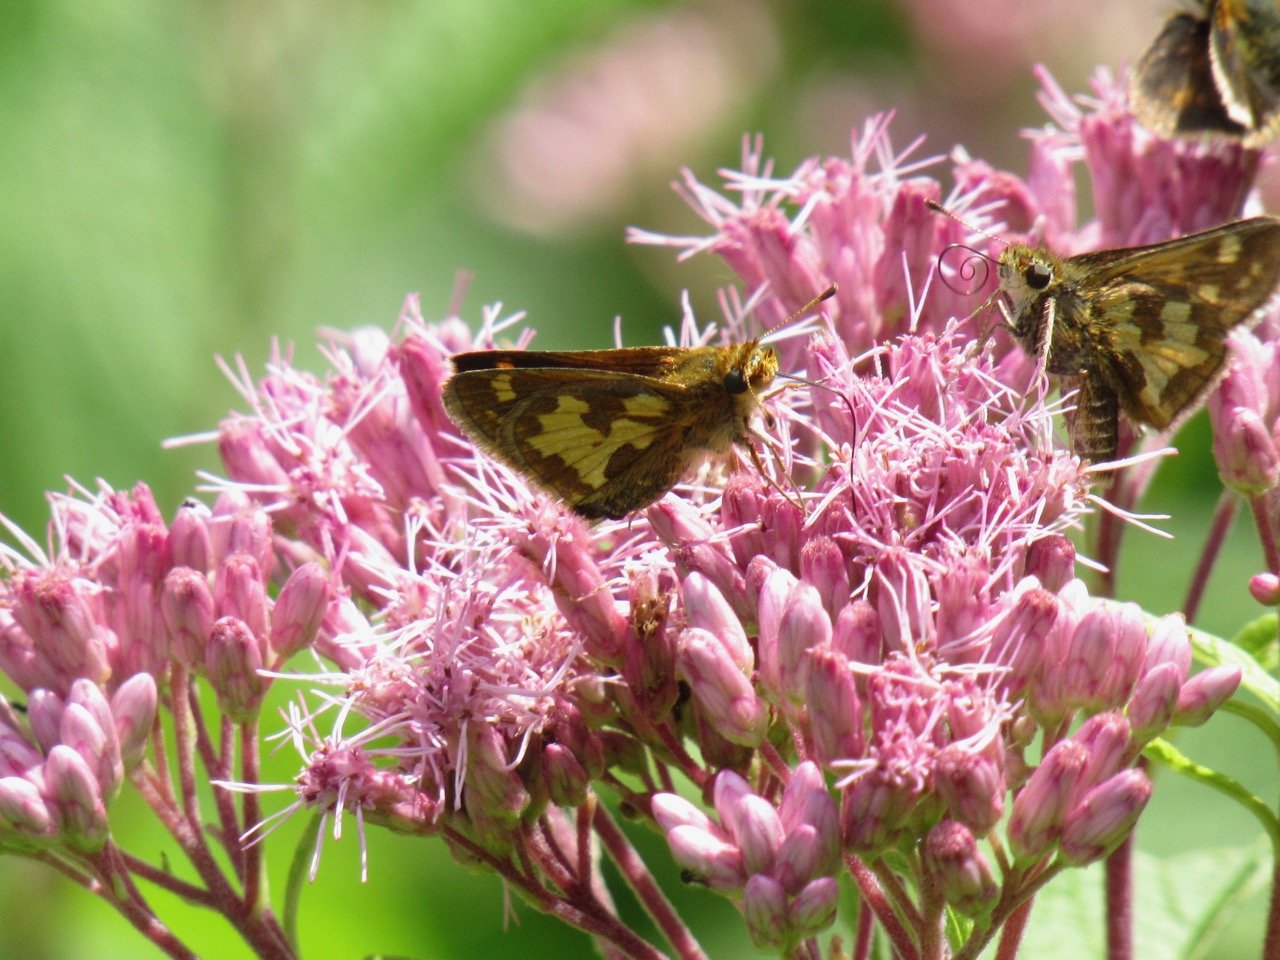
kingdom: Animalia
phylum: Arthropoda
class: Insecta
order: Lepidoptera
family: Hesperiidae
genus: Polites
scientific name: Polites coras
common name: Peck's Skipper
